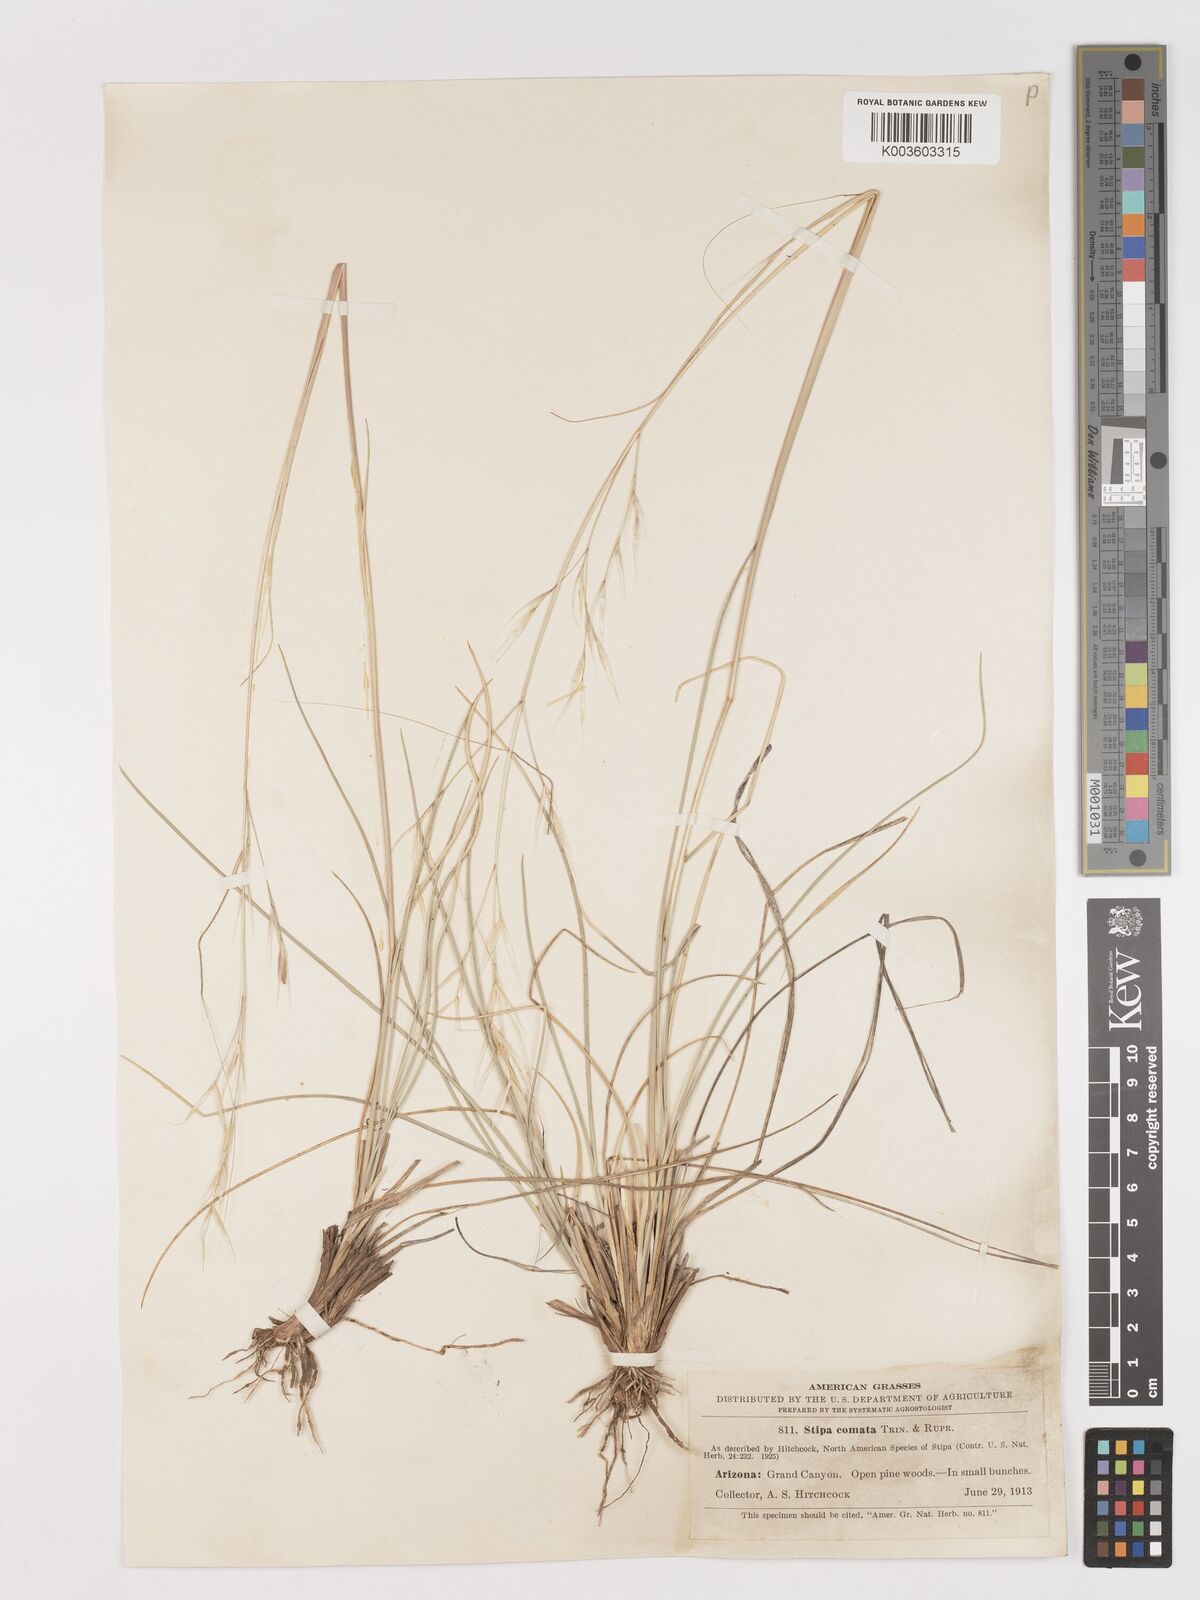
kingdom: Plantae
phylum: Tracheophyta
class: Liliopsida
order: Poales
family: Poaceae
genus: Hesperostipa
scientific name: Hesperostipa comata
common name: Needle-and-thread grass
